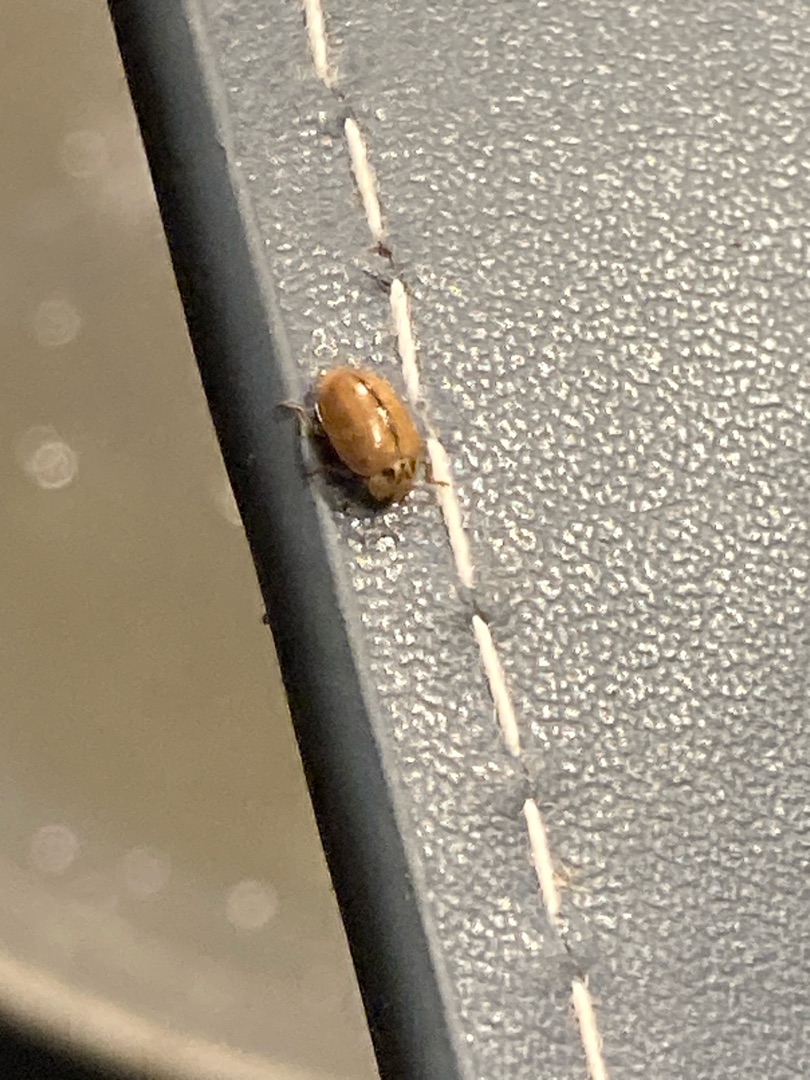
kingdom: Animalia
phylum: Arthropoda
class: Insecta
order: Coleoptera
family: Coccinellidae
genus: Aphidecta
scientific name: Aphidecta obliterata
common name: Uplettet mariehøne
